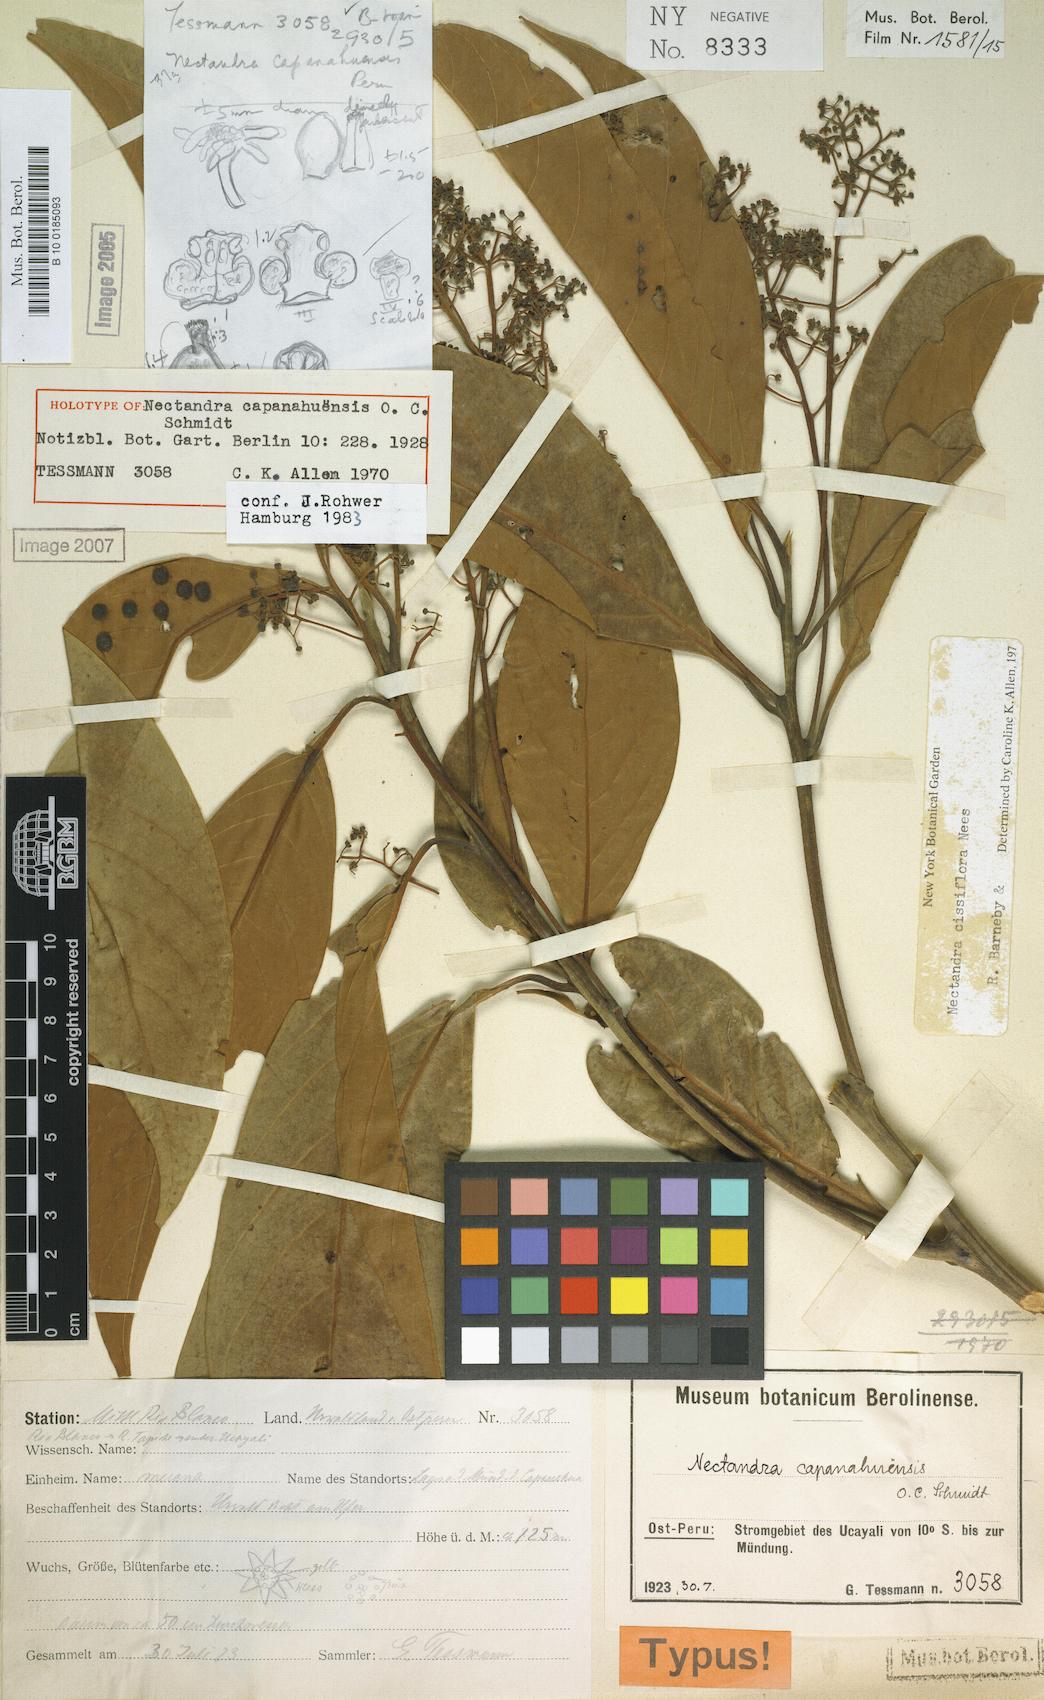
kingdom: Plantae
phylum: Tracheophyta
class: Magnoliopsida
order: Laurales
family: Lauraceae
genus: Nectandra
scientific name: Nectandra cissiflora
